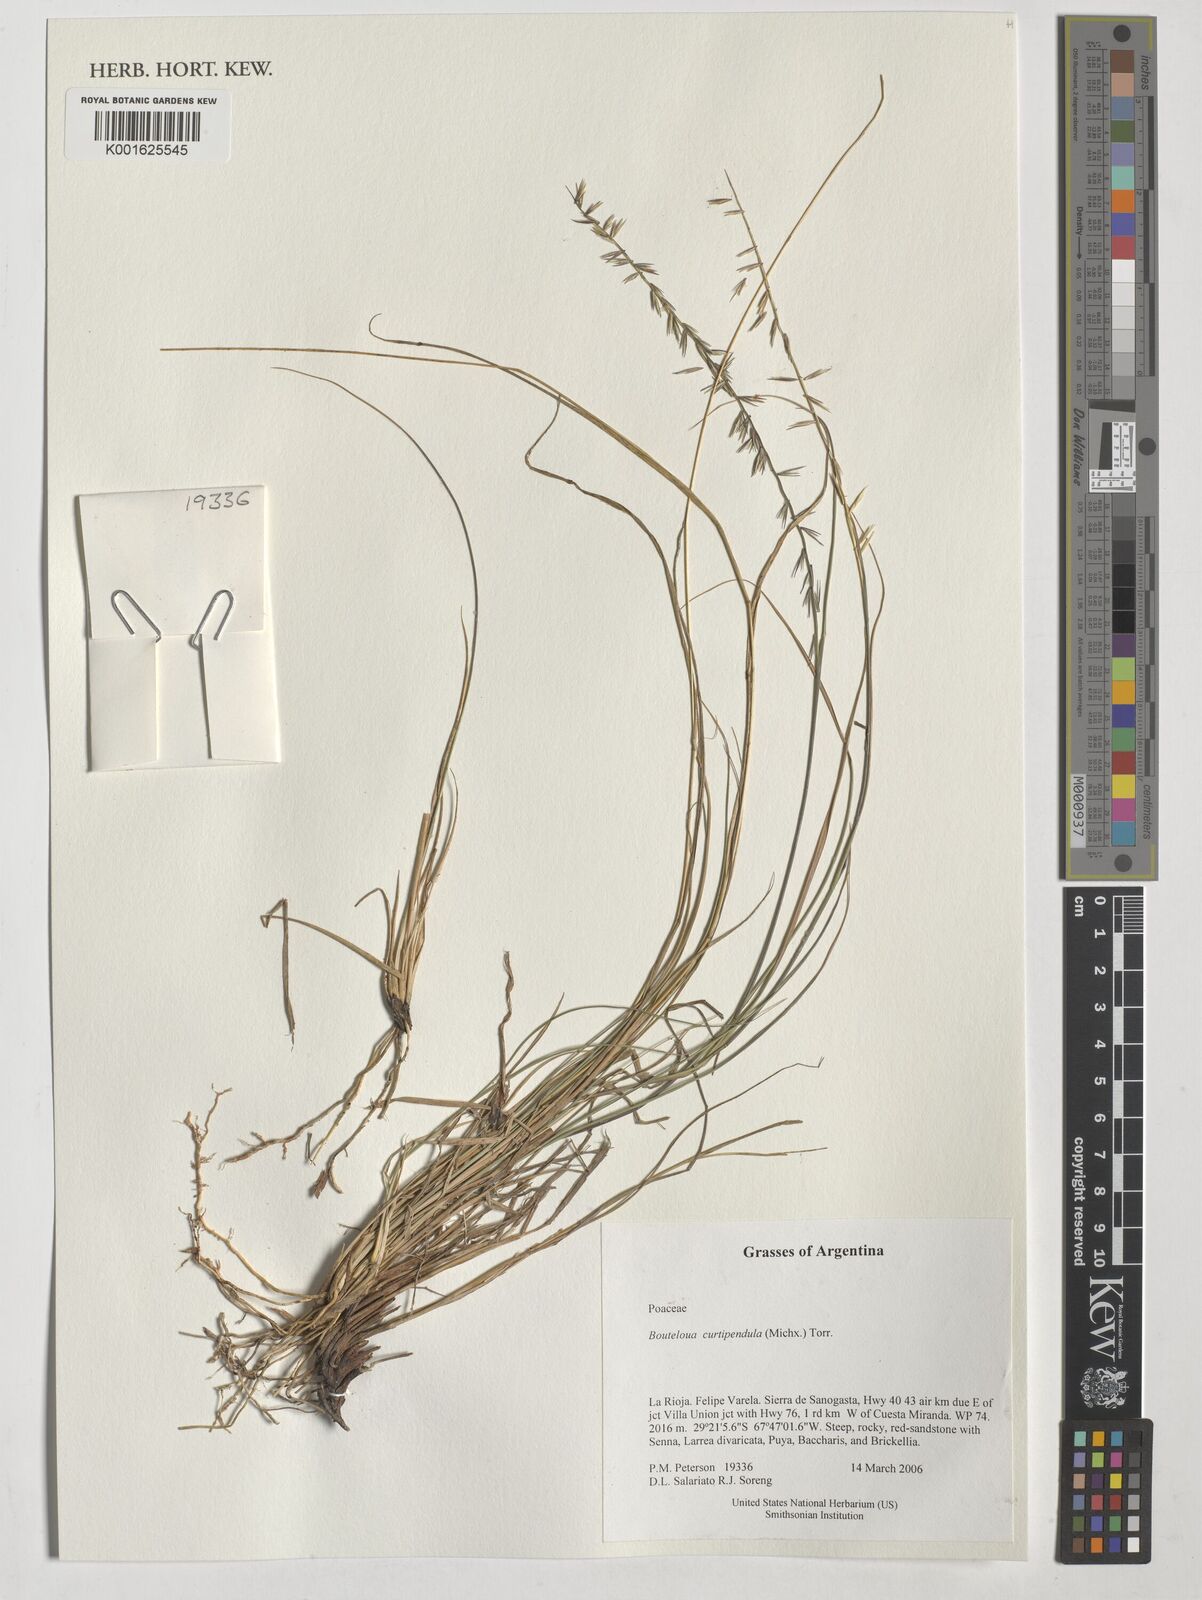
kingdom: Plantae
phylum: Tracheophyta
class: Liliopsida
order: Poales
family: Poaceae
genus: Bouteloua
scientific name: Bouteloua curtipendula
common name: Side-oats grama
